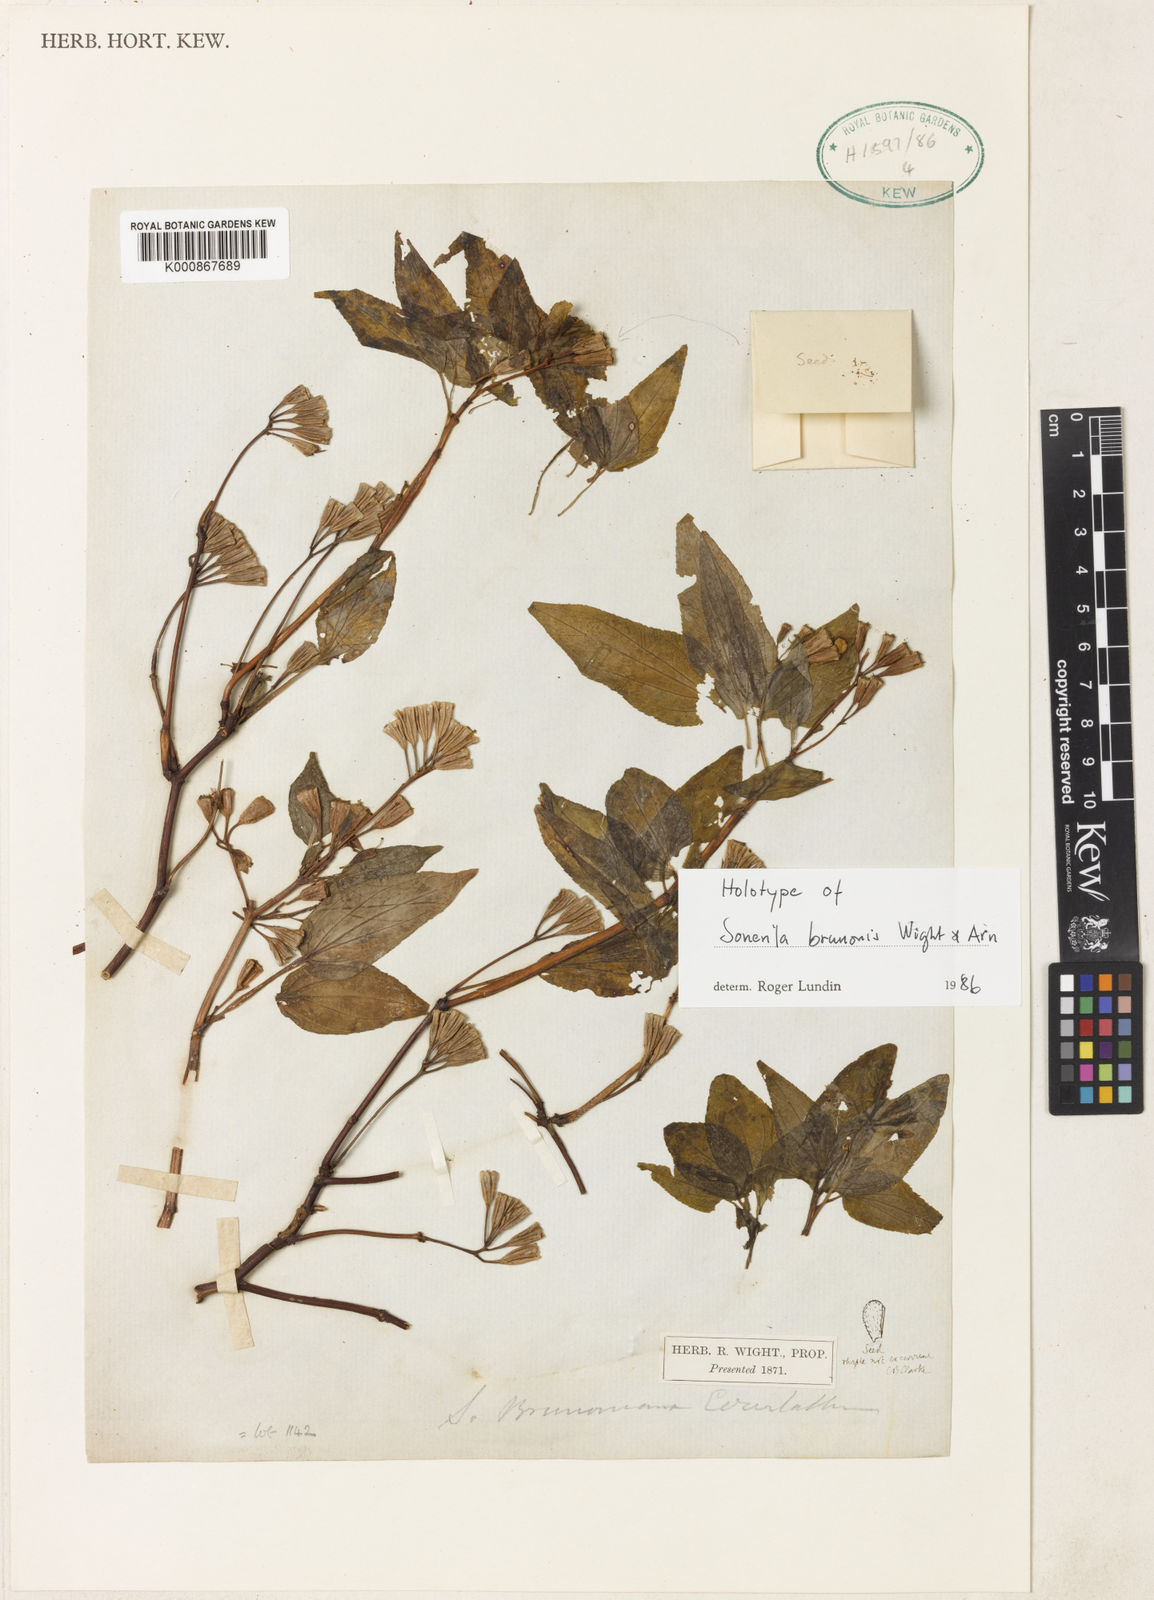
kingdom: Plantae
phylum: Tracheophyta
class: Magnoliopsida
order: Myrtales
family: Melastomataceae
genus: Sonerila
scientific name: Sonerila brunonis
